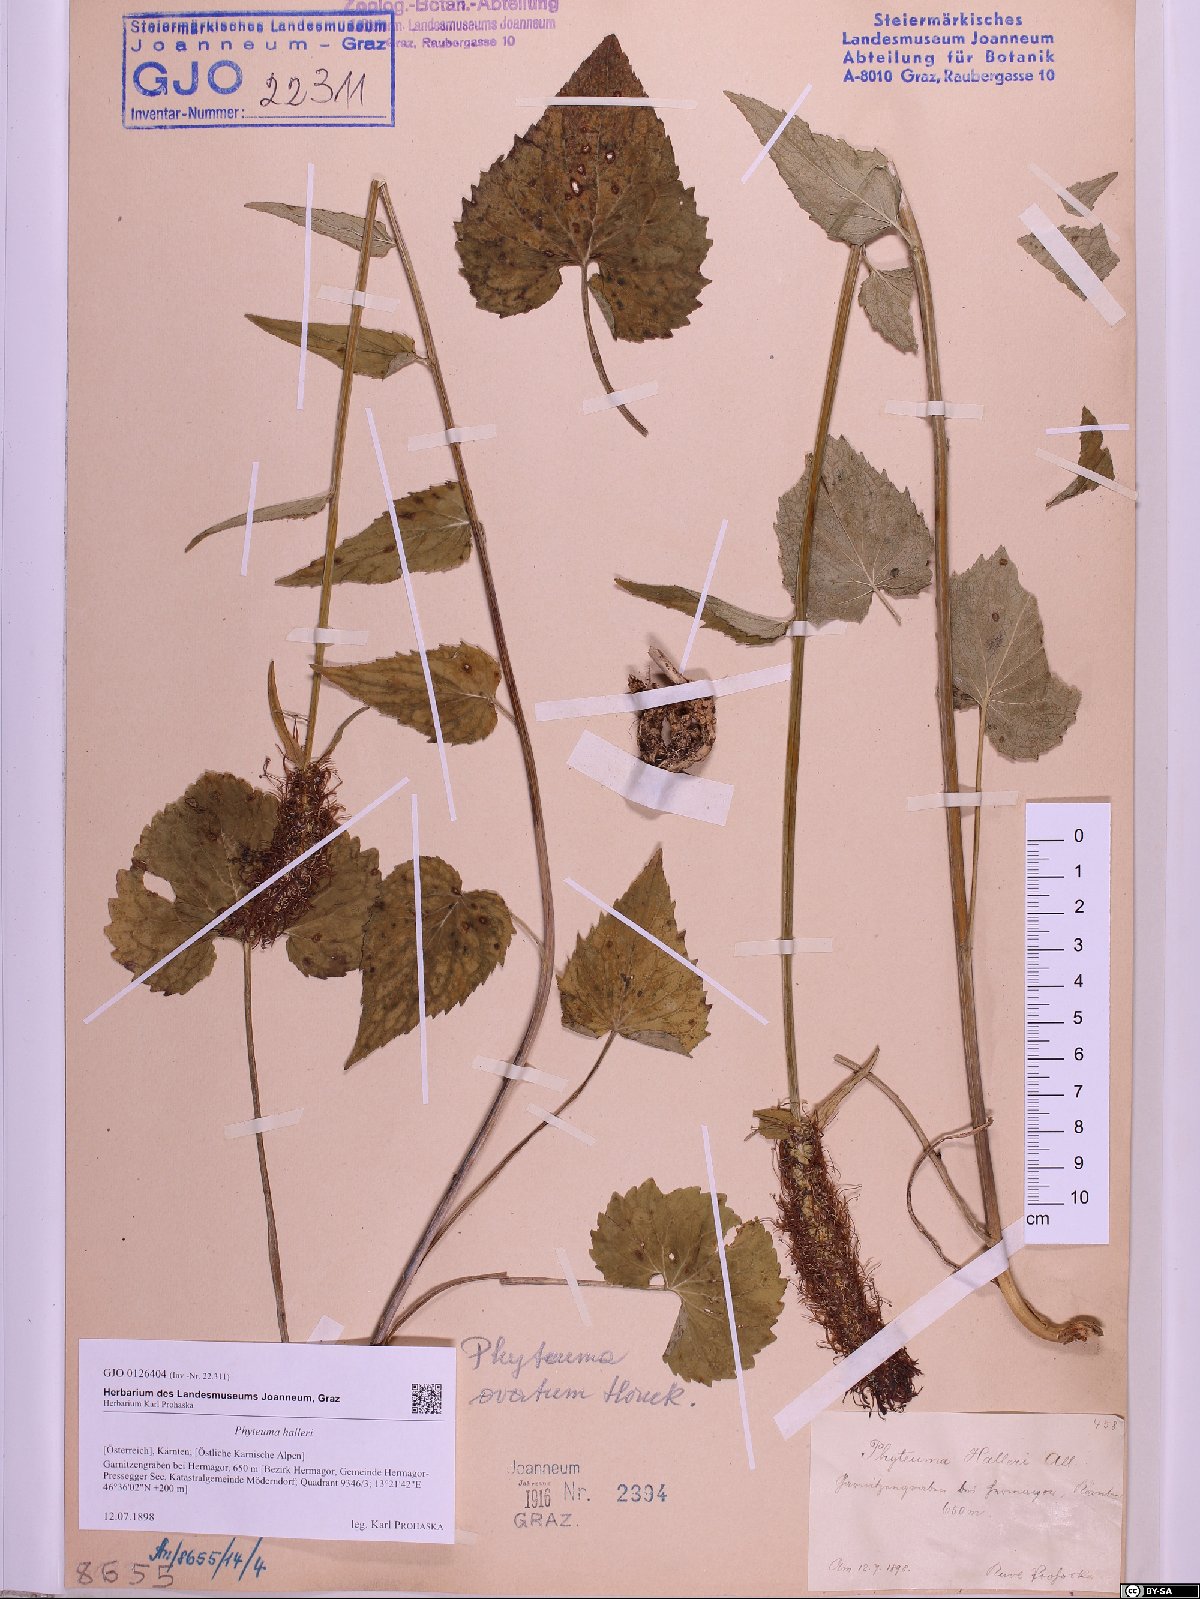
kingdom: Plantae
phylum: Tracheophyta
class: Magnoliopsida
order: Asterales
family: Campanulaceae
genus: Phyteuma
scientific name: Phyteuma ovatum
